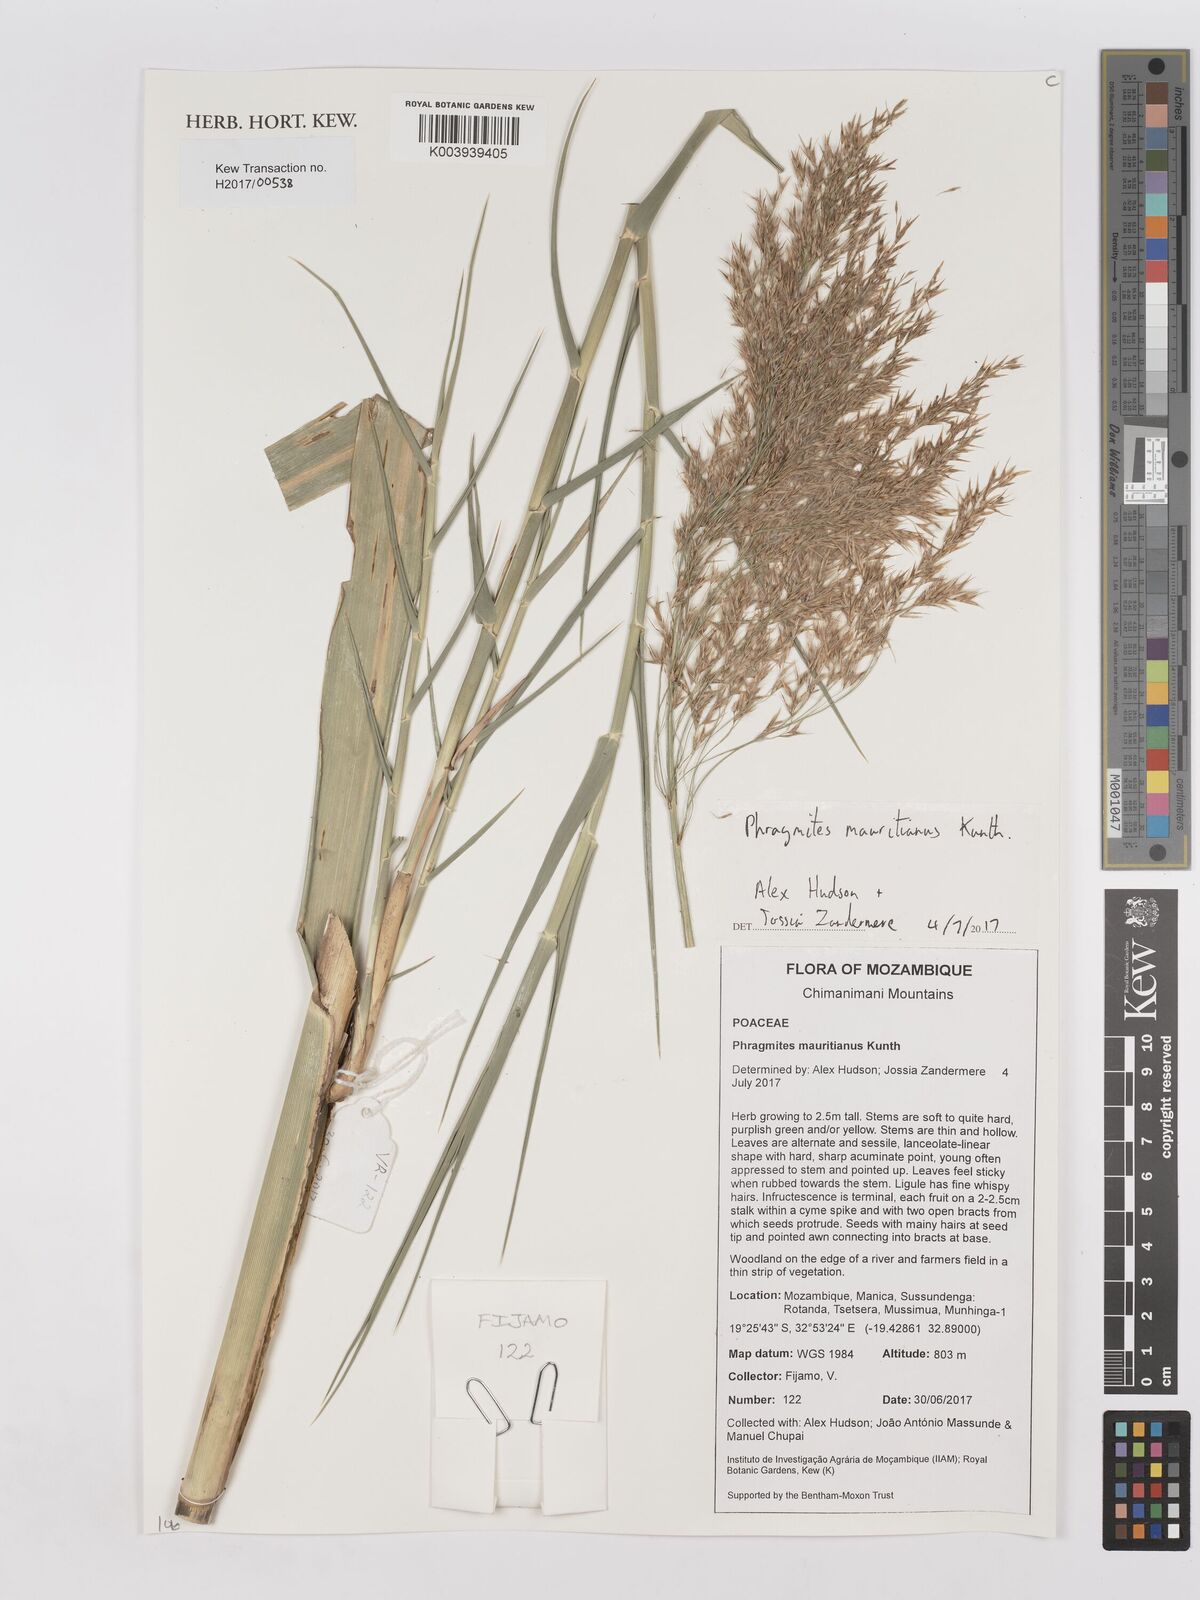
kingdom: Plantae
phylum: Tracheophyta
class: Liliopsida
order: Poales
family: Poaceae
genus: Phragmites
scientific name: Phragmites mauritianus
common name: Reed grass
